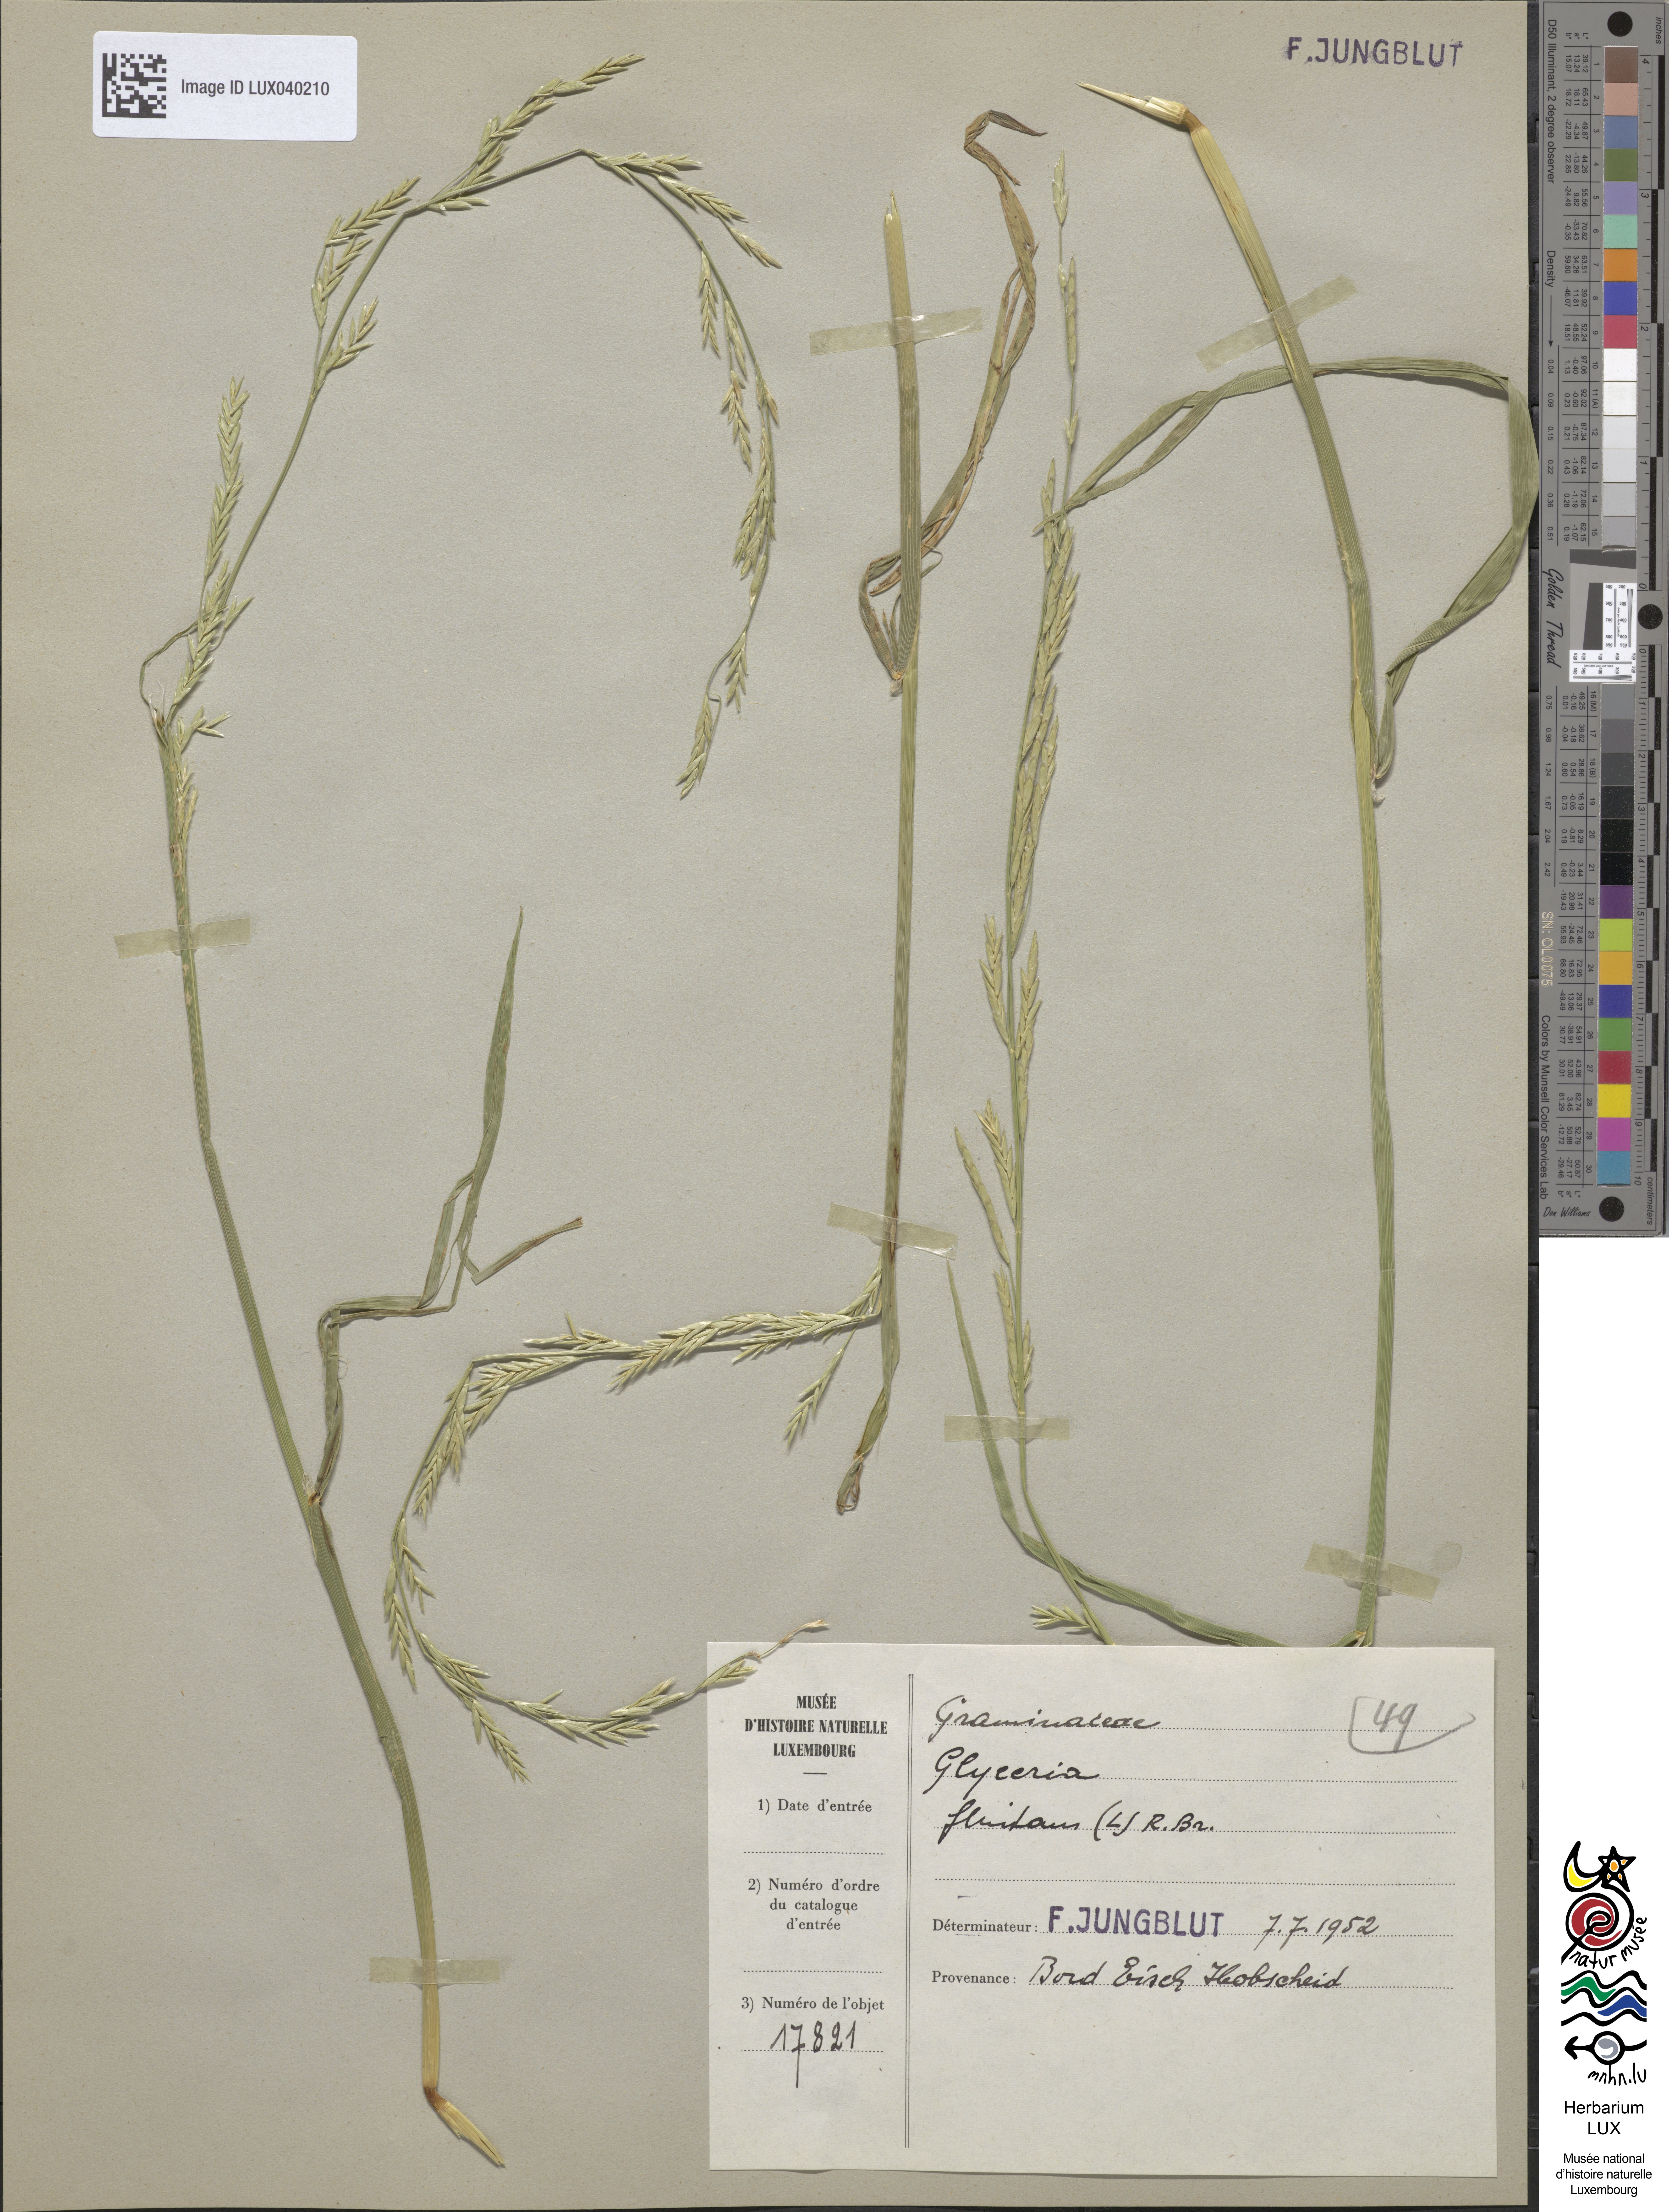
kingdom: Plantae
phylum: Tracheophyta
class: Liliopsida
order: Poales
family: Poaceae
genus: Glyceria
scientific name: Glyceria fluitans
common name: Floating sweet-grass
